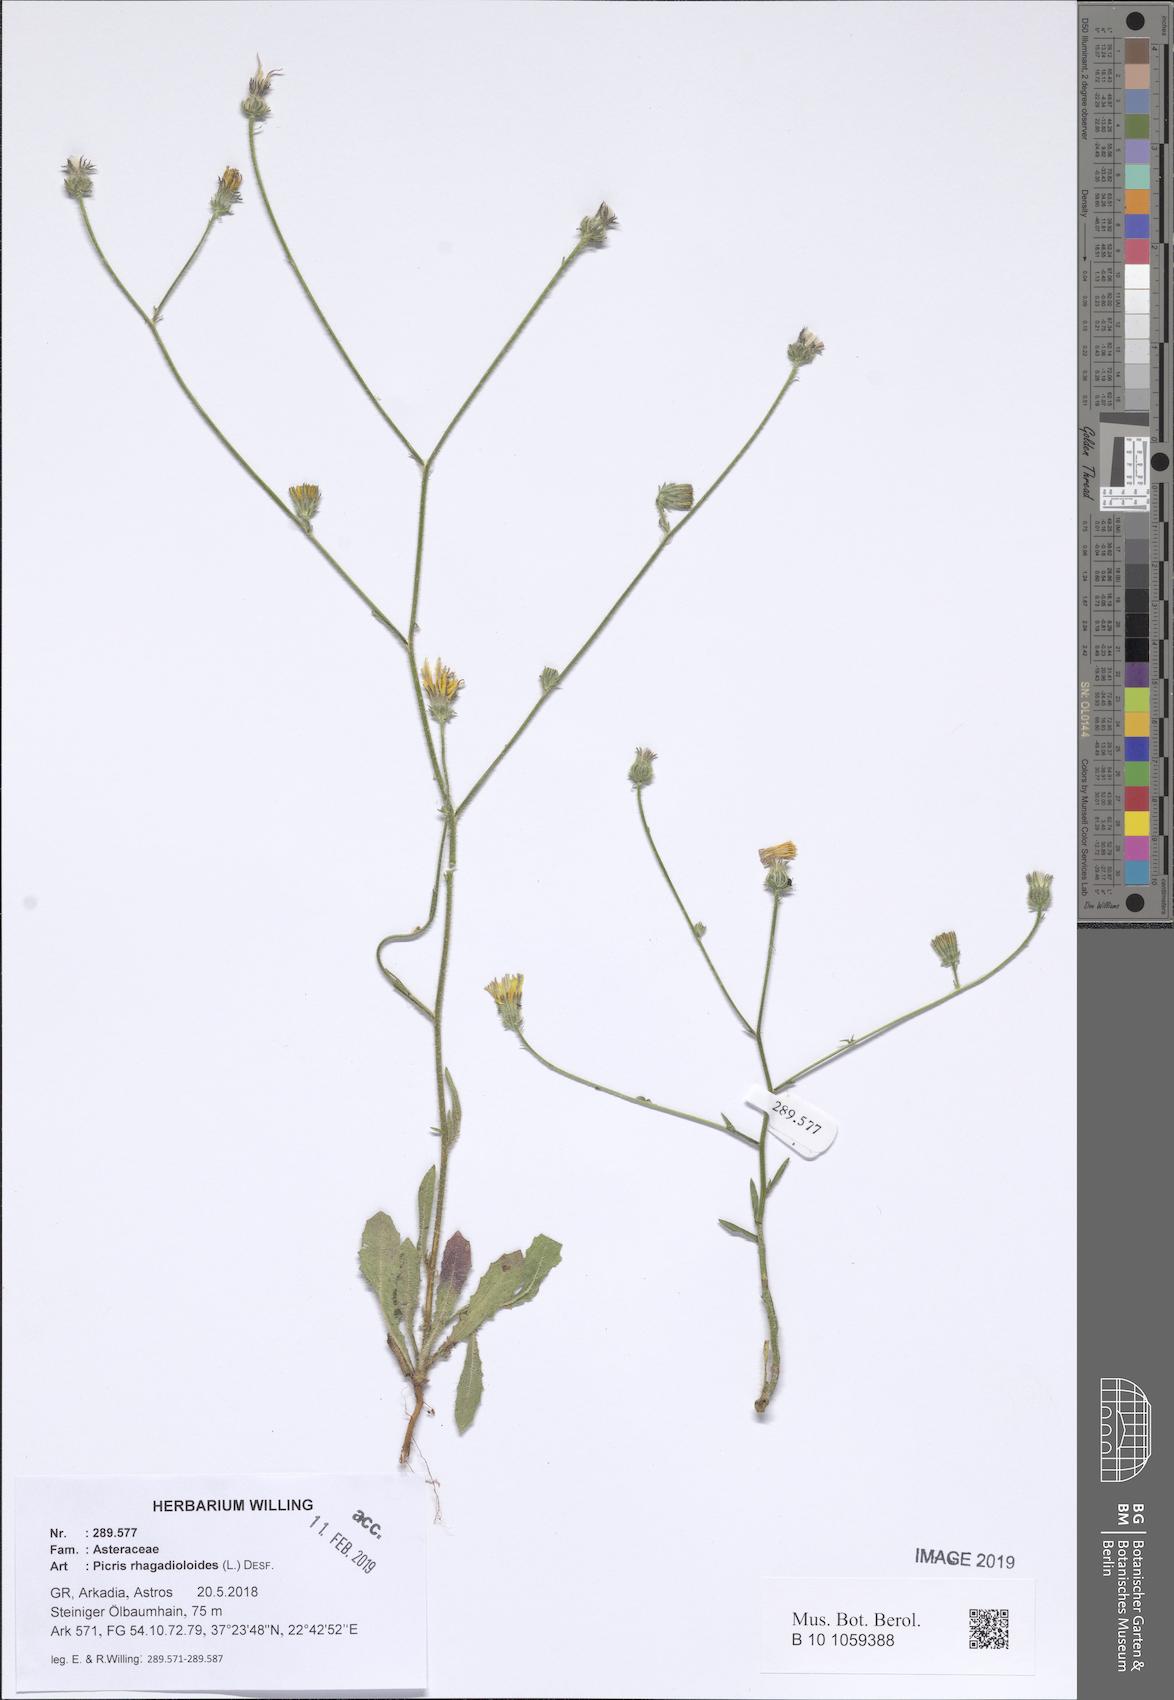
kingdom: Plantae
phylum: Tracheophyta
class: Magnoliopsida
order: Asterales
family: Asteraceae
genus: Picris
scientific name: Picris rhagadioloides
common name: Oxtongue
